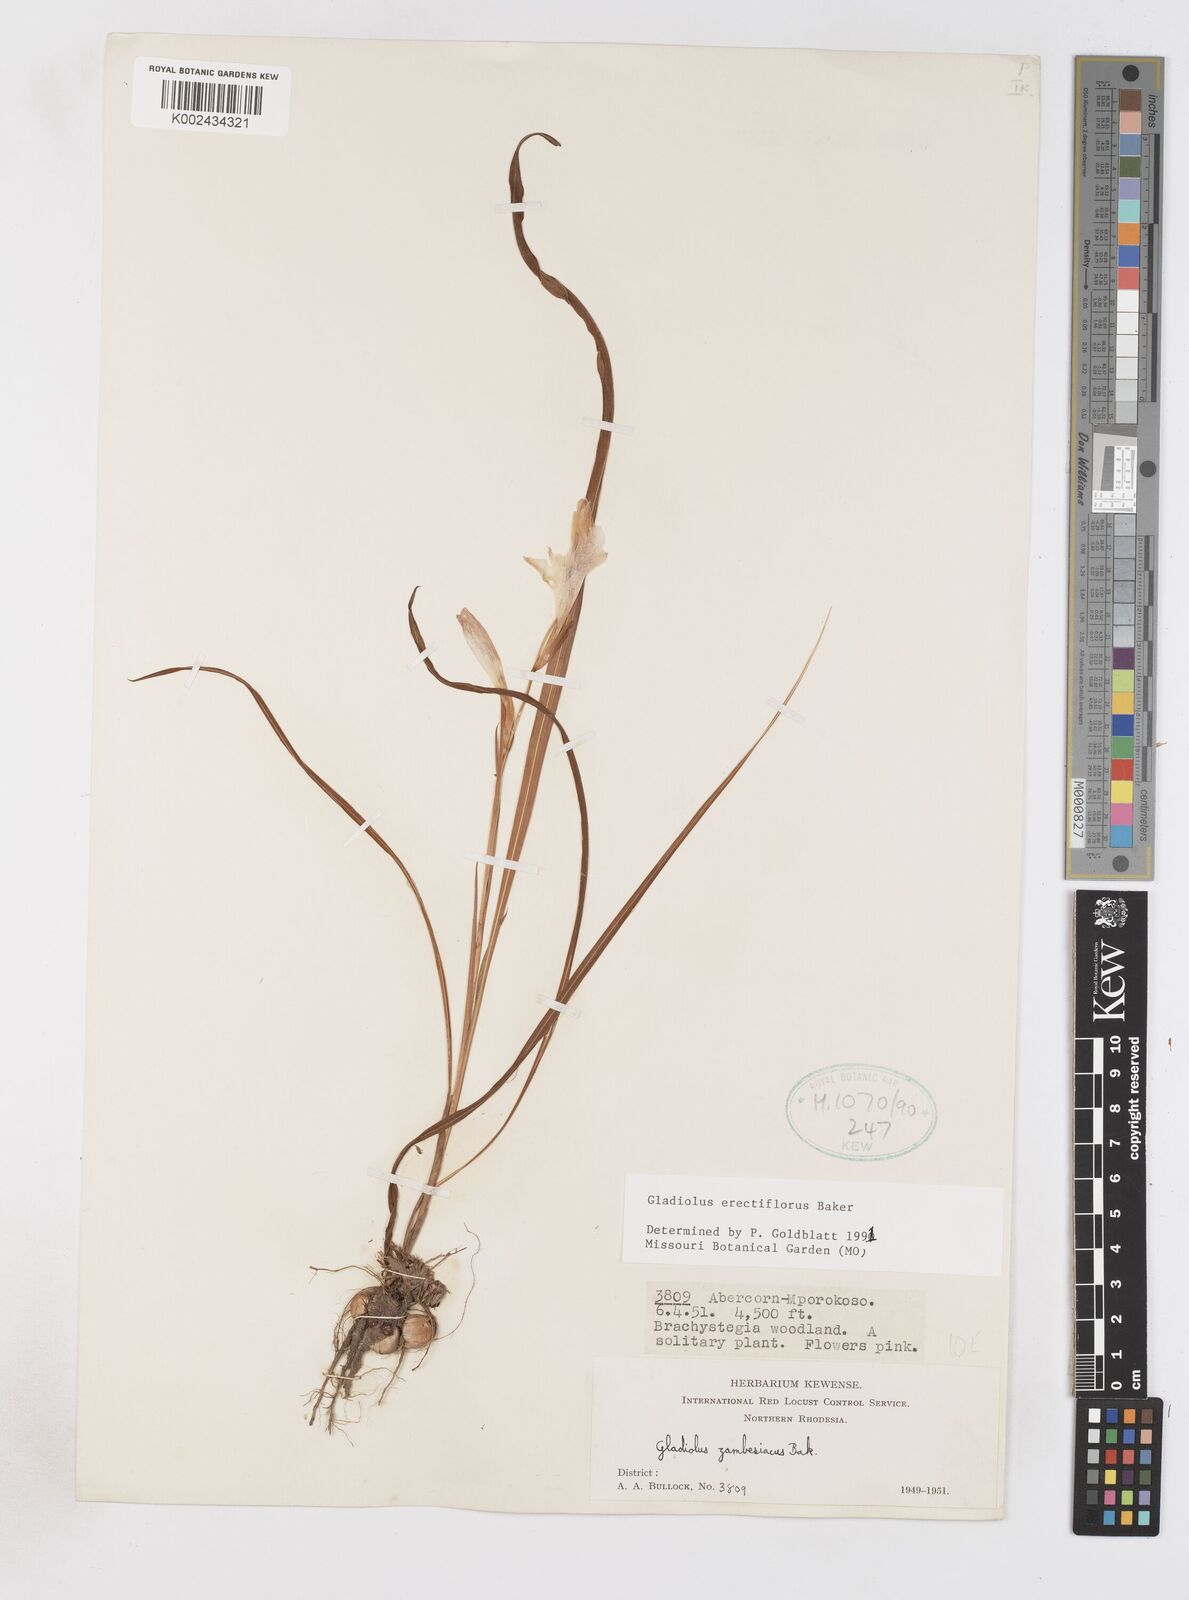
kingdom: Plantae
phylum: Tracheophyta
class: Liliopsida
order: Asparagales
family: Iridaceae
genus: Gladiolus
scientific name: Gladiolus erectiflorus
